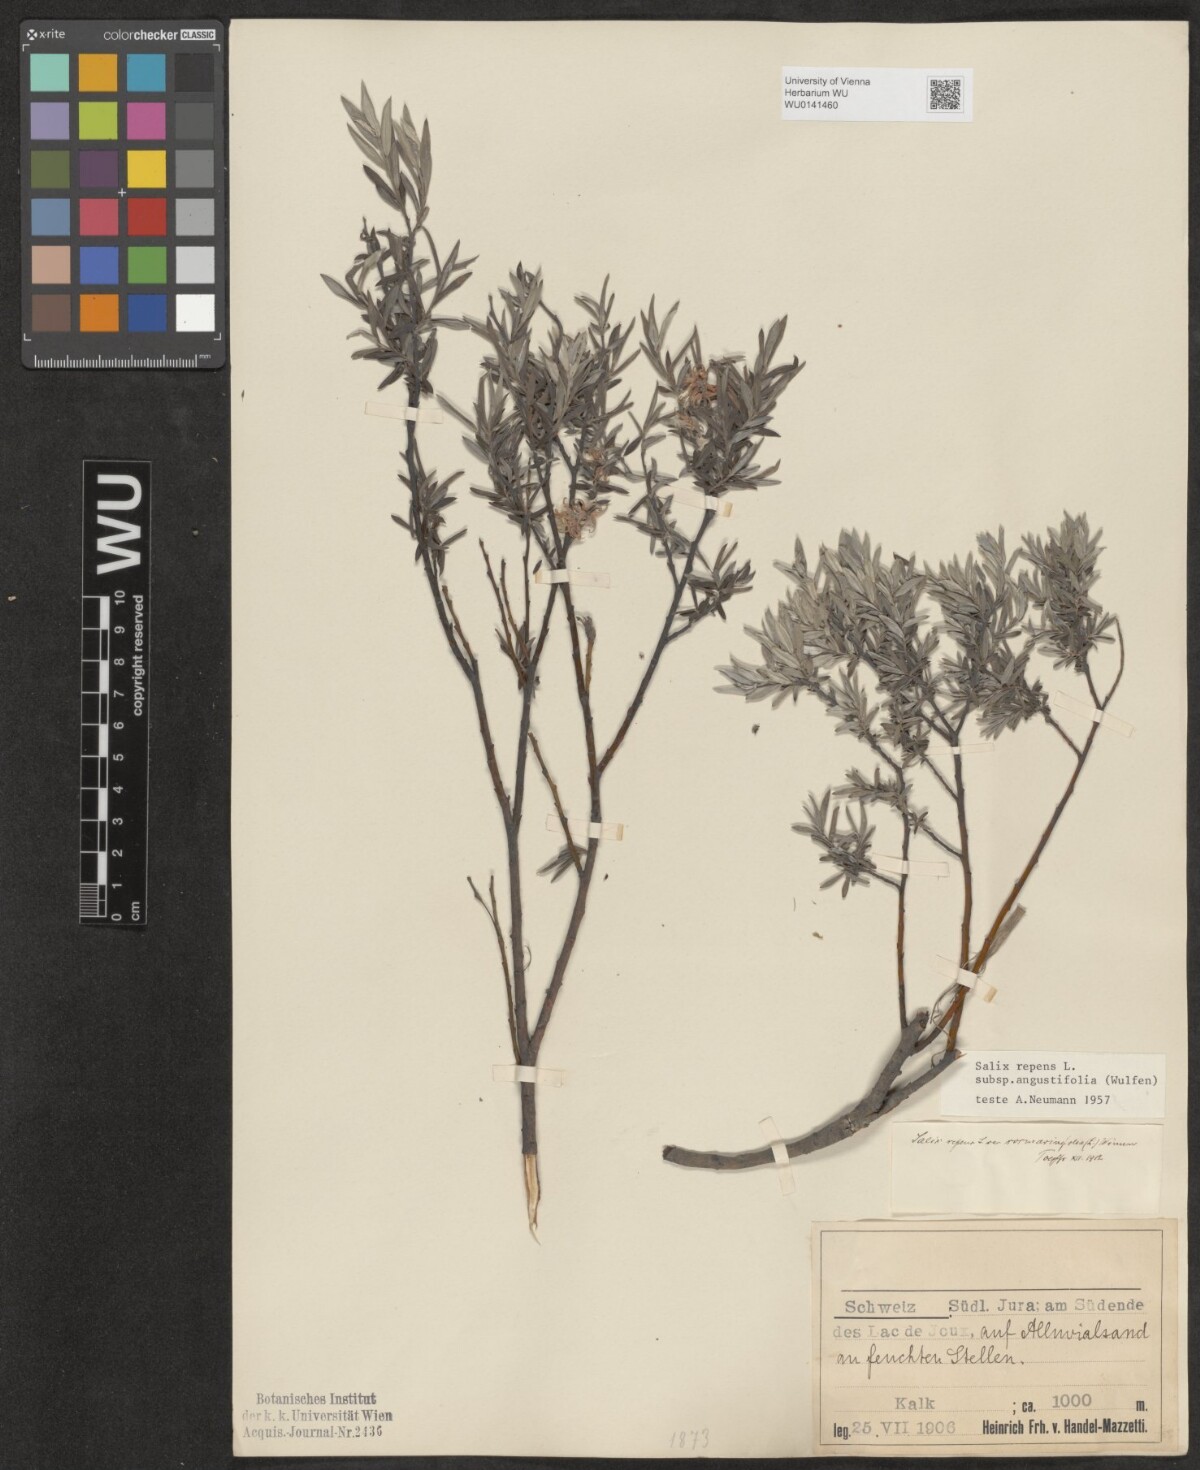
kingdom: Plantae
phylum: Tracheophyta
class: Magnoliopsida
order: Malpighiales
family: Salicaceae
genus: Salix
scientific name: Salix rosmarinifolia
